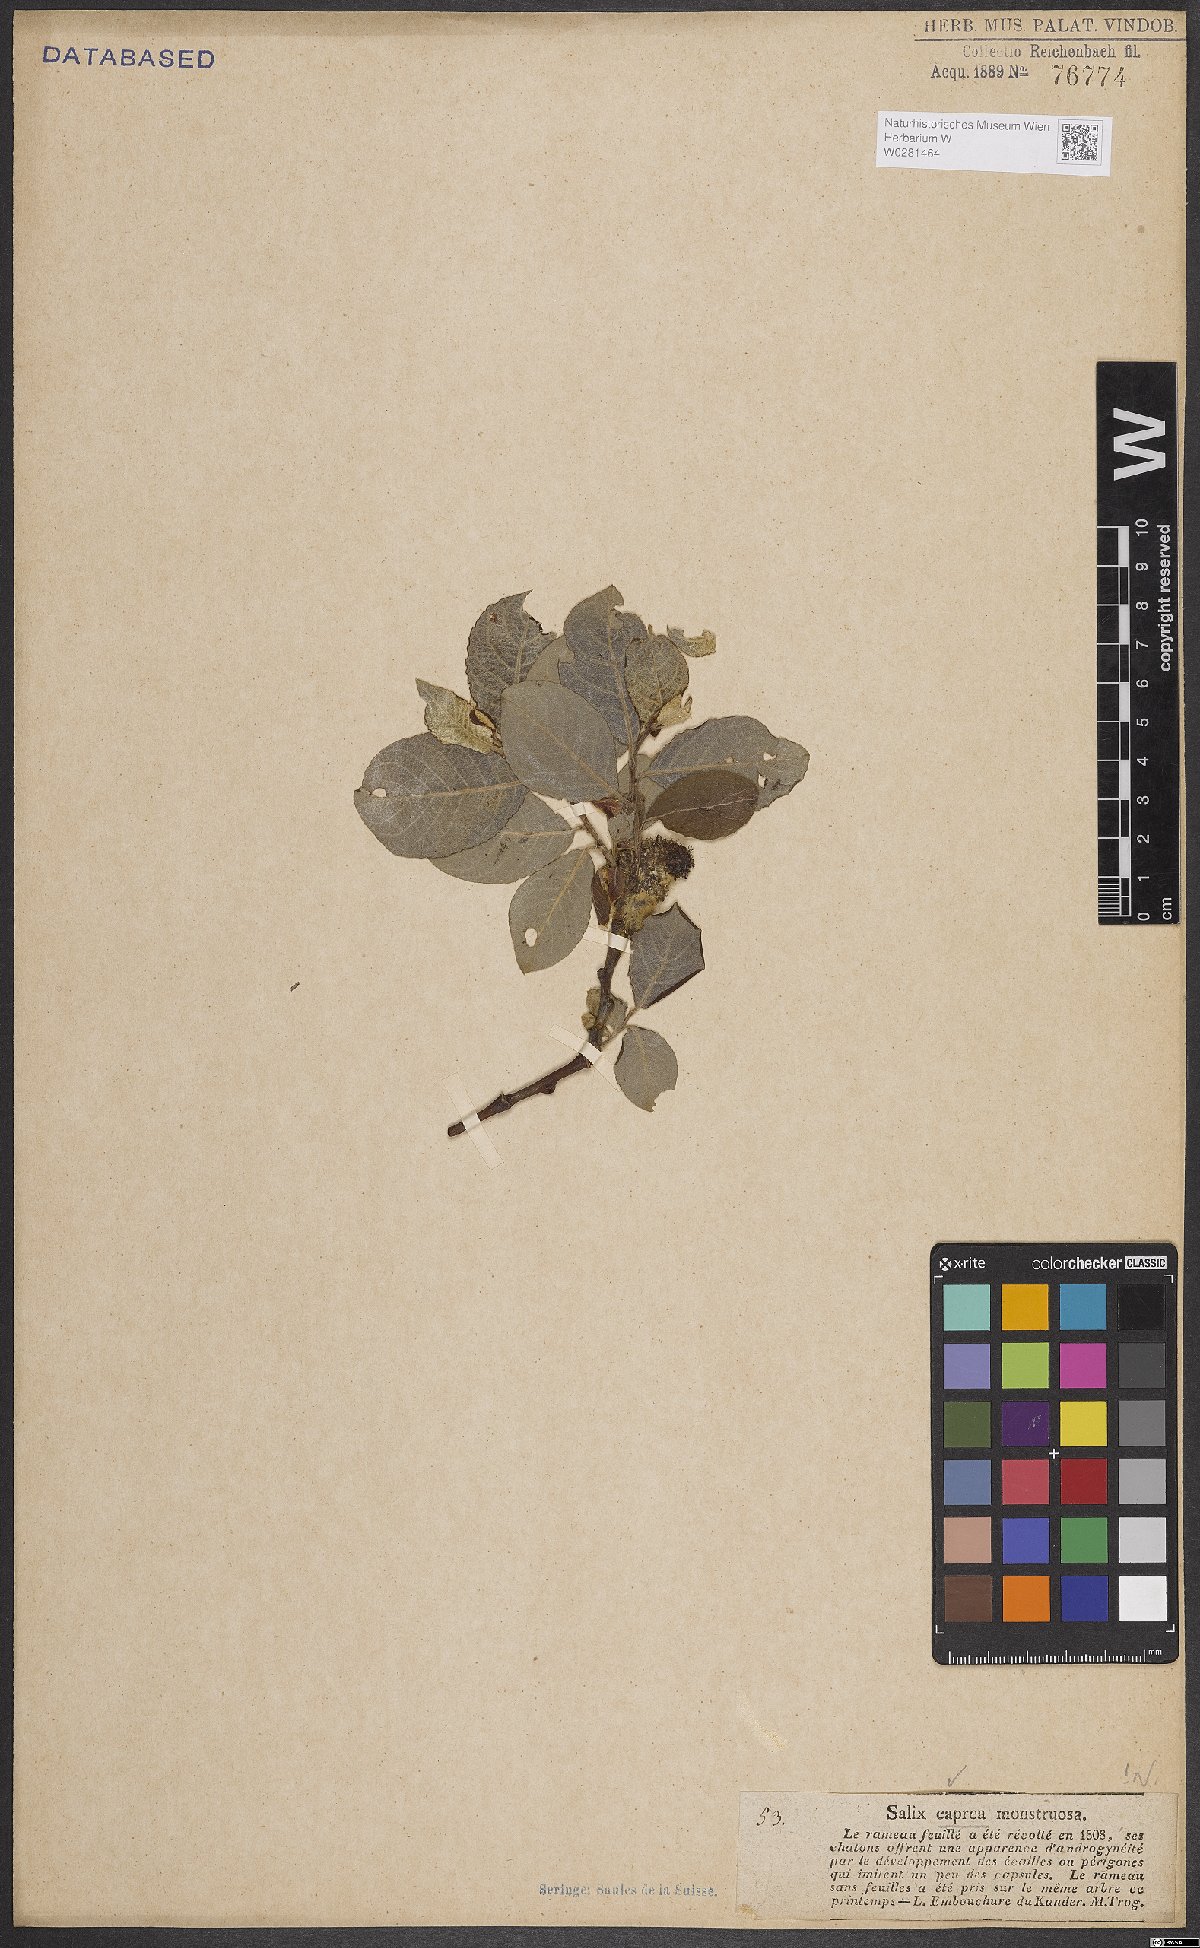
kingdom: Plantae
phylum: Tracheophyta
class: Magnoliopsida
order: Malpighiales
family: Salicaceae
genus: Salix
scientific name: Salix caprea
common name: Goat willow
